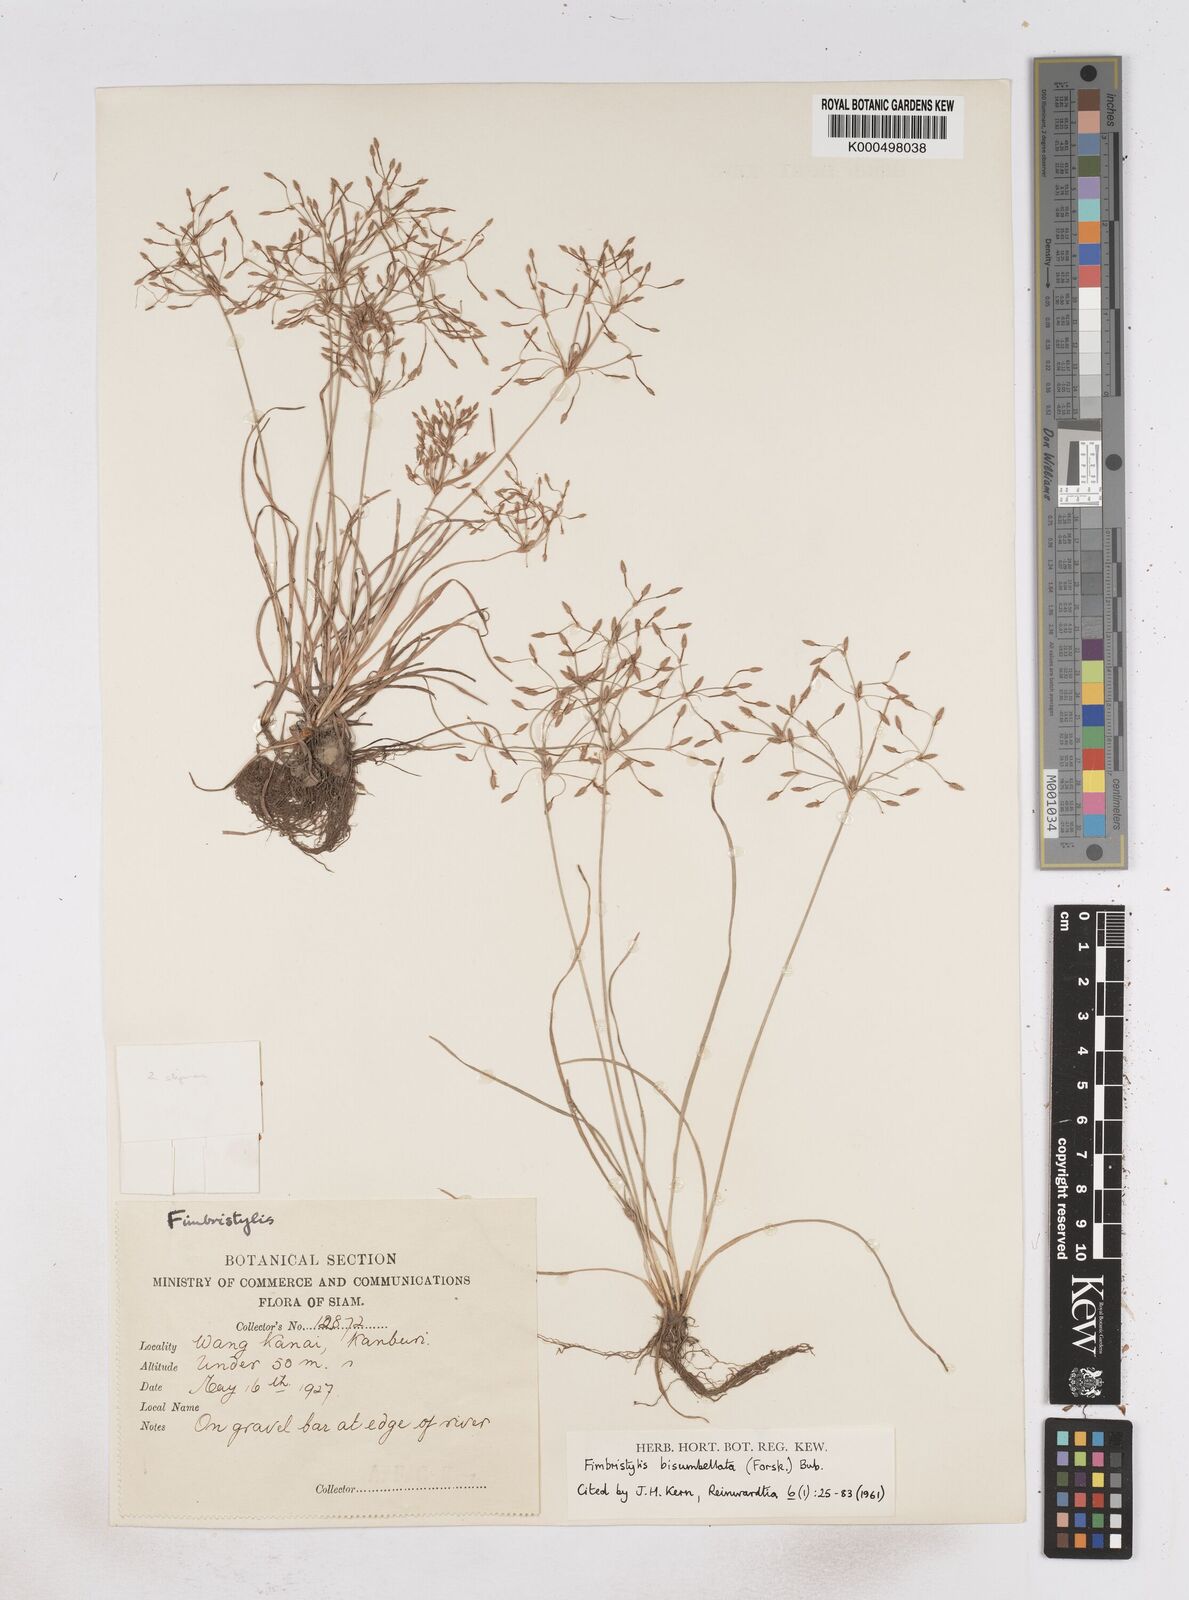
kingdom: Plantae
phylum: Tracheophyta
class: Liliopsida
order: Poales
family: Cyperaceae
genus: Fimbristylis
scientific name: Fimbristylis bisumbellata
